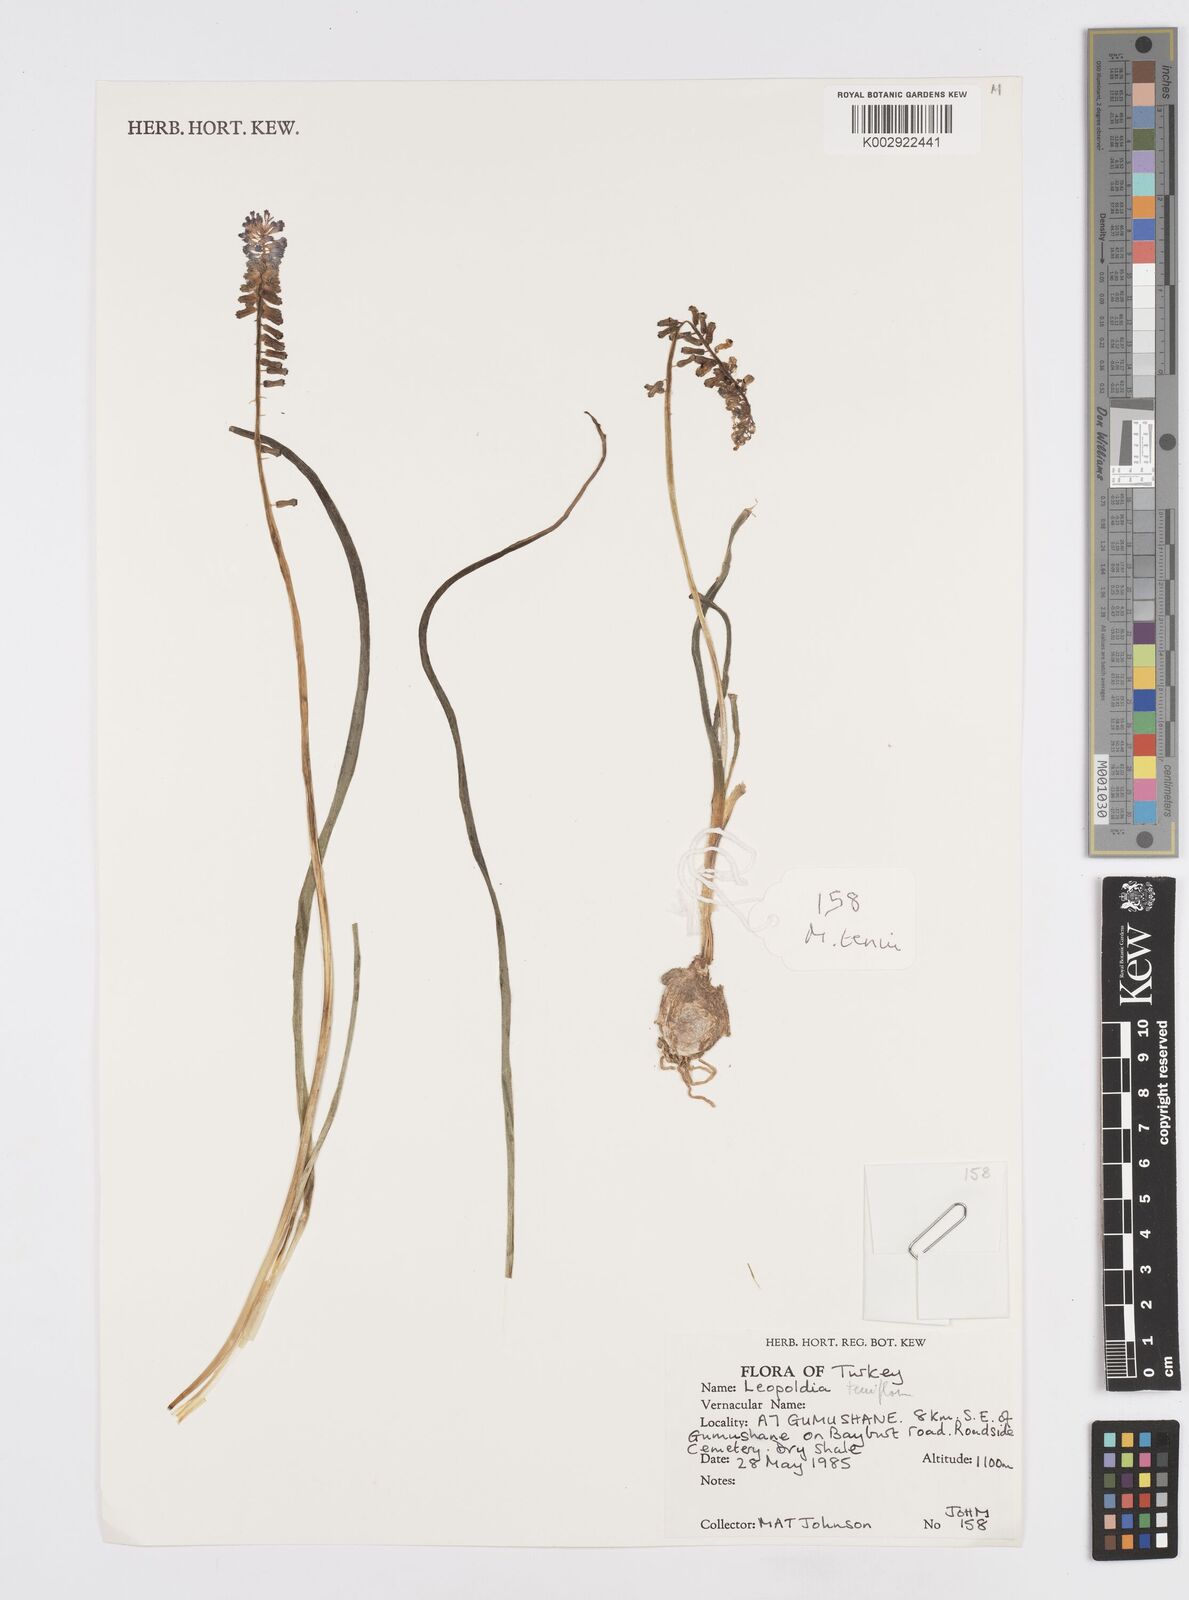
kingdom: Plantae
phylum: Tracheophyta
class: Liliopsida
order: Asparagales
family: Asparagaceae
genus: Muscari
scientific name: Muscari tenuiflorum
